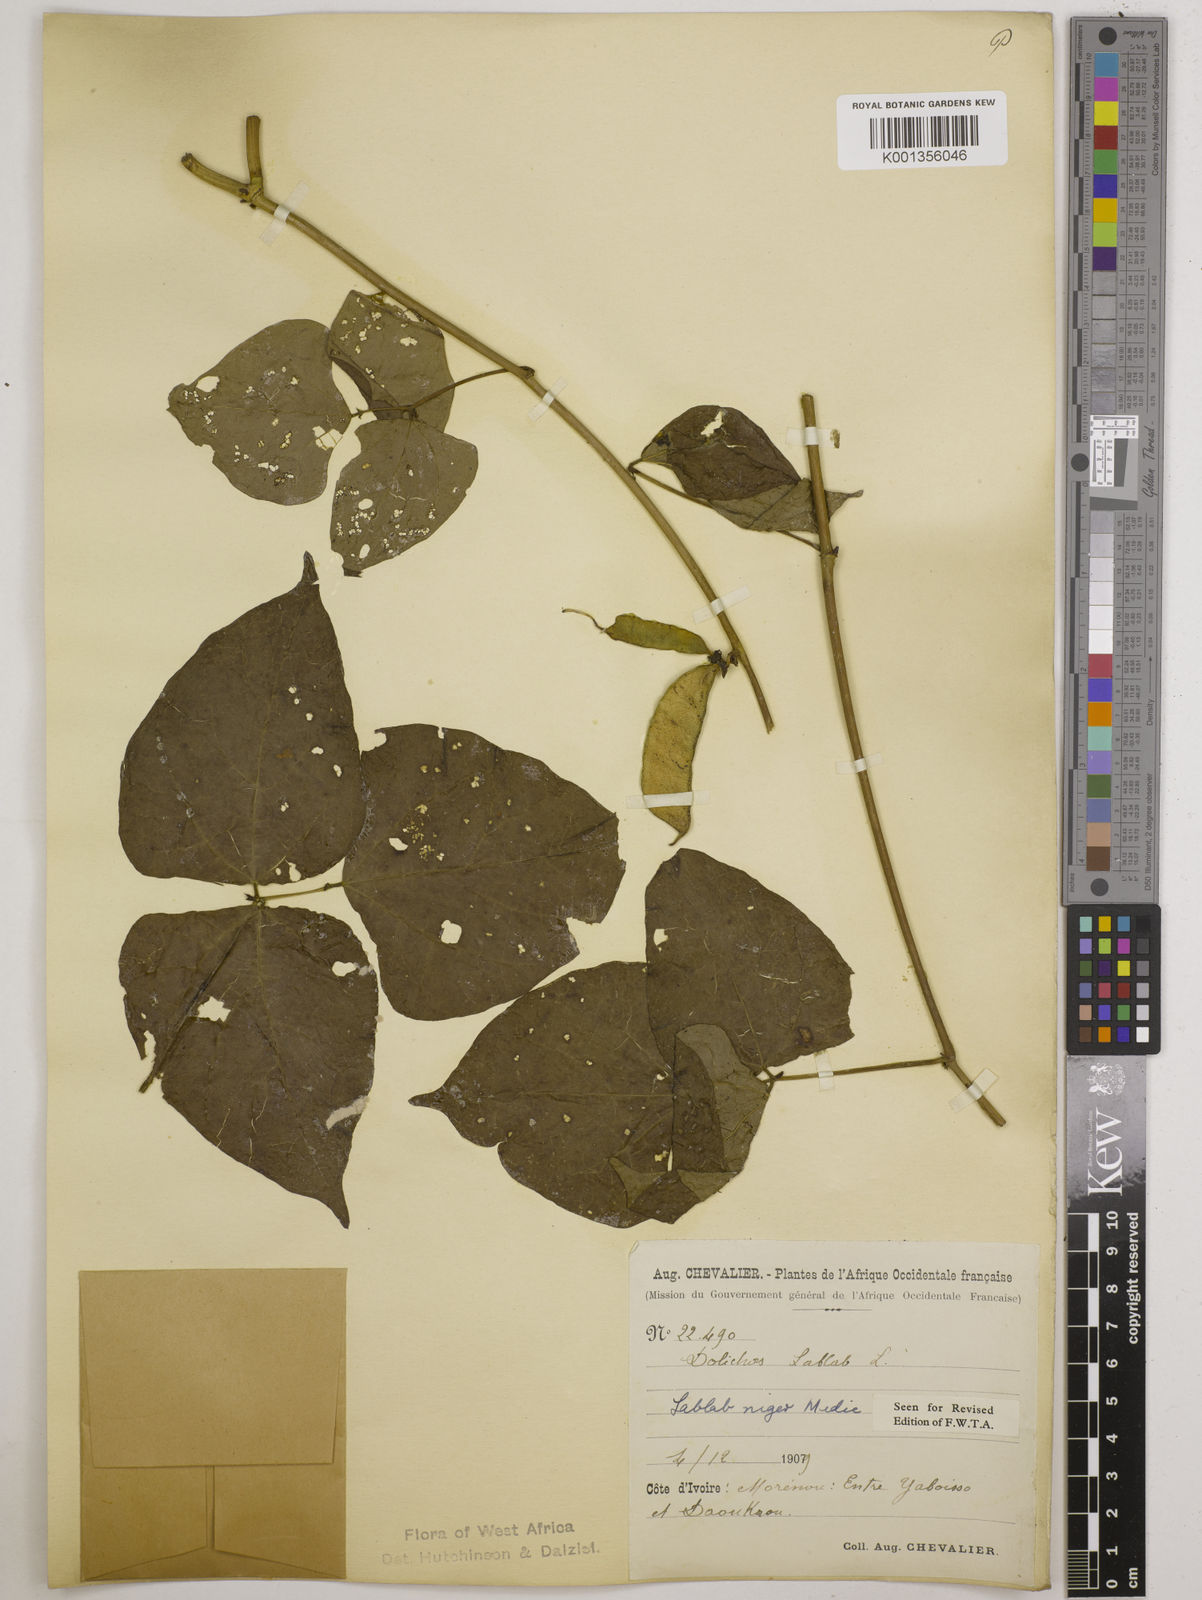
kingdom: Plantae
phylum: Tracheophyta
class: Magnoliopsida
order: Fabales
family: Fabaceae
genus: Lablab
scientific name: Lablab purpureus
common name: Lablab-bean
